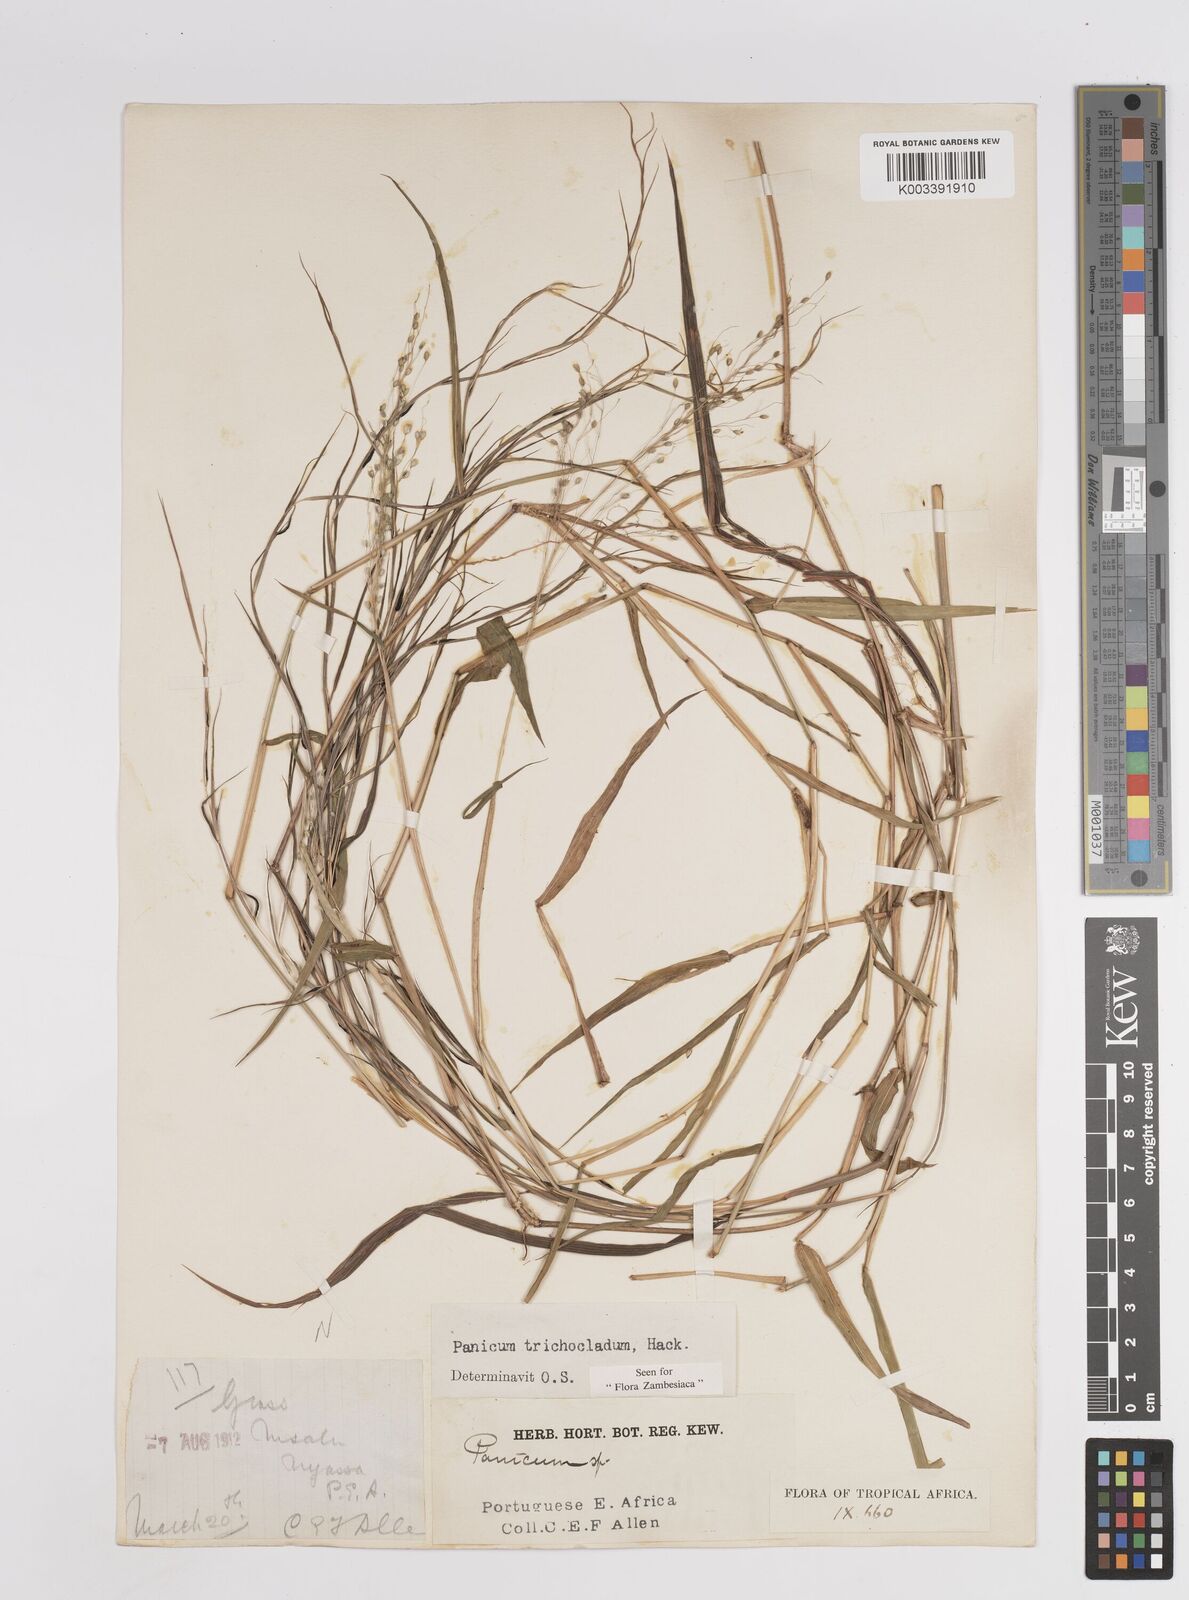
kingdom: Plantae
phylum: Tracheophyta
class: Liliopsida
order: Poales
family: Poaceae
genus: Panicum
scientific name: Panicum trichocladum
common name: Donkey grass
